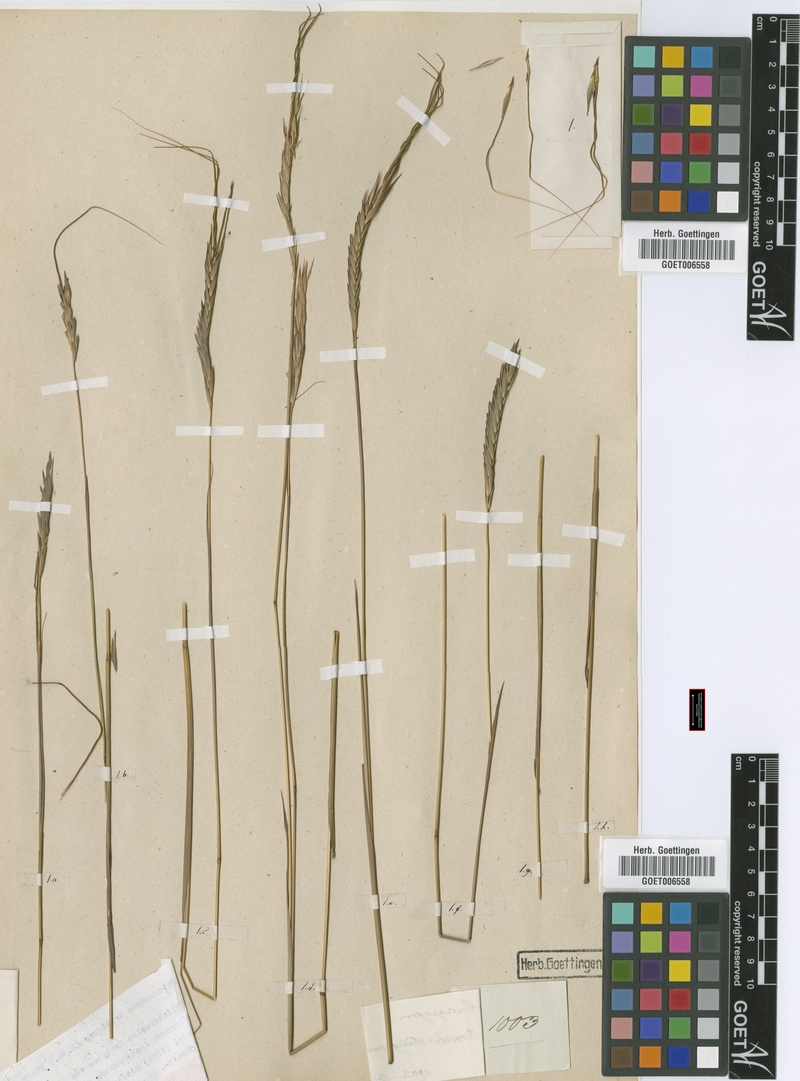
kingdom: Plantae
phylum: Tracheophyta
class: Liliopsida
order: Poales
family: Poaceae
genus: Heteropogon
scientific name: Heteropogon triticeus
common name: Sugar grass
